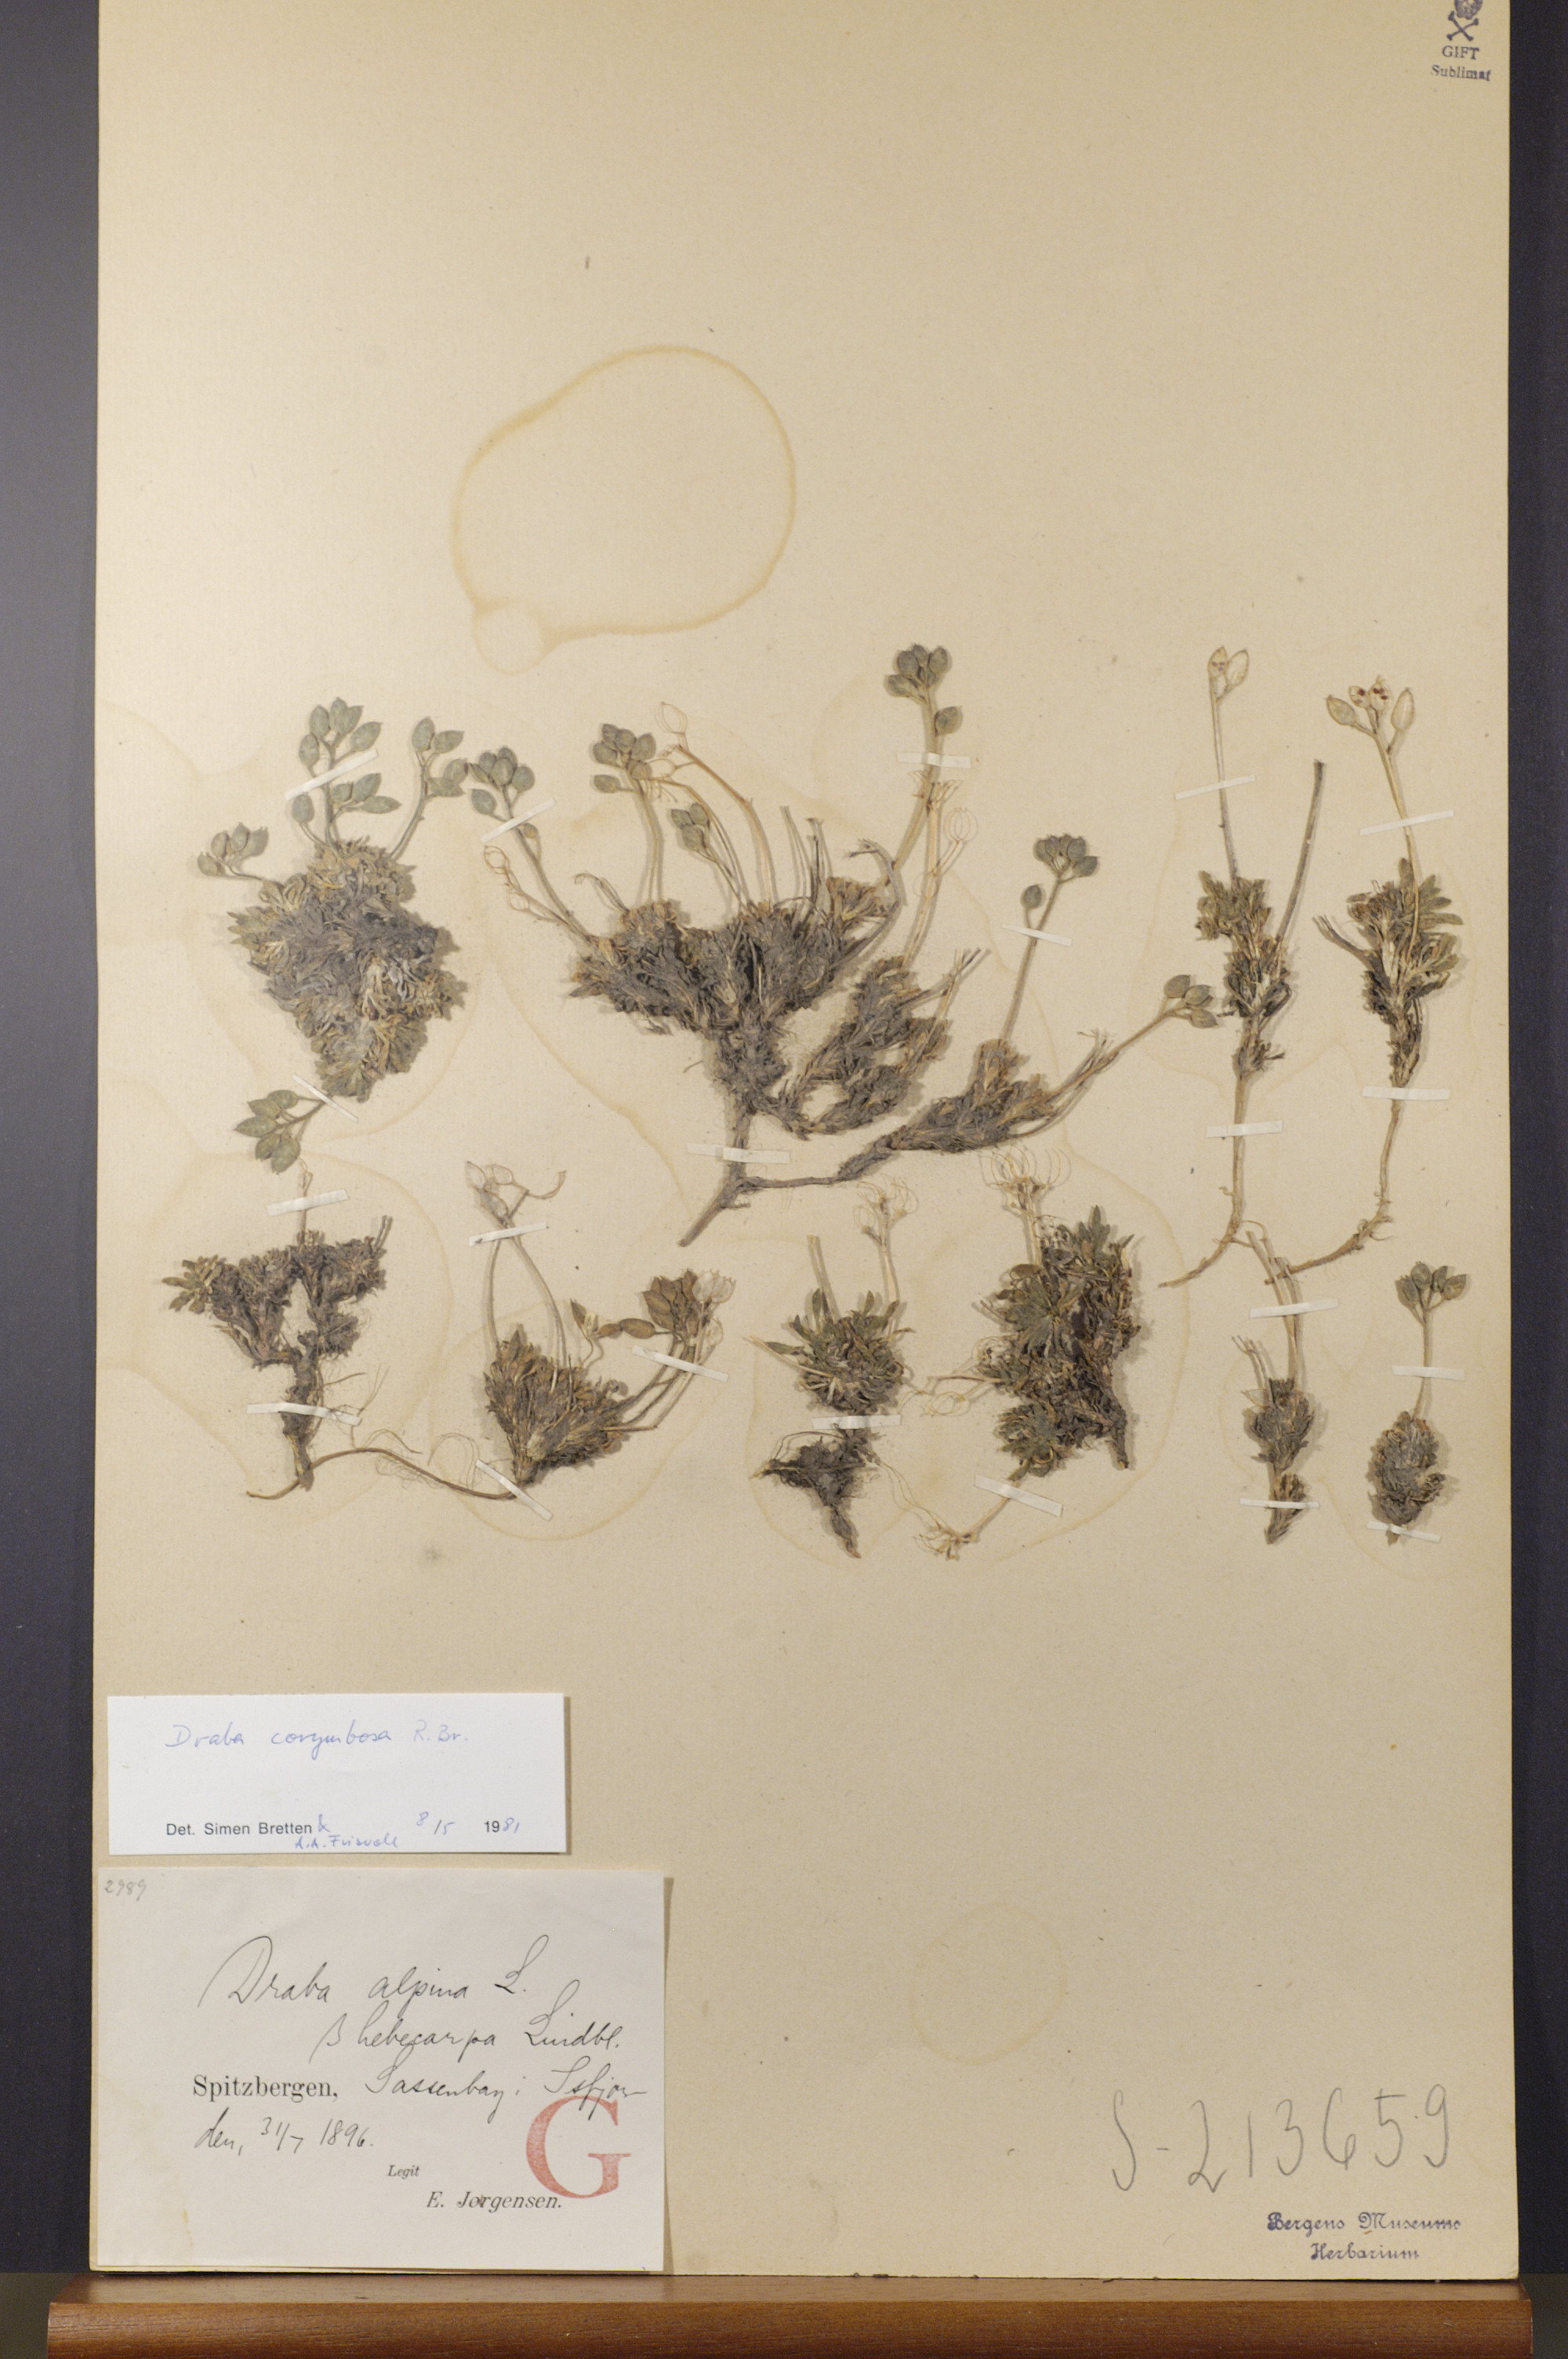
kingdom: Plantae
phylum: Tracheophyta
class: Magnoliopsida
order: Brassicales
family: Brassicaceae
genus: Draba
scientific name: Draba corymbosa
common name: Cushion whitlow-grass
